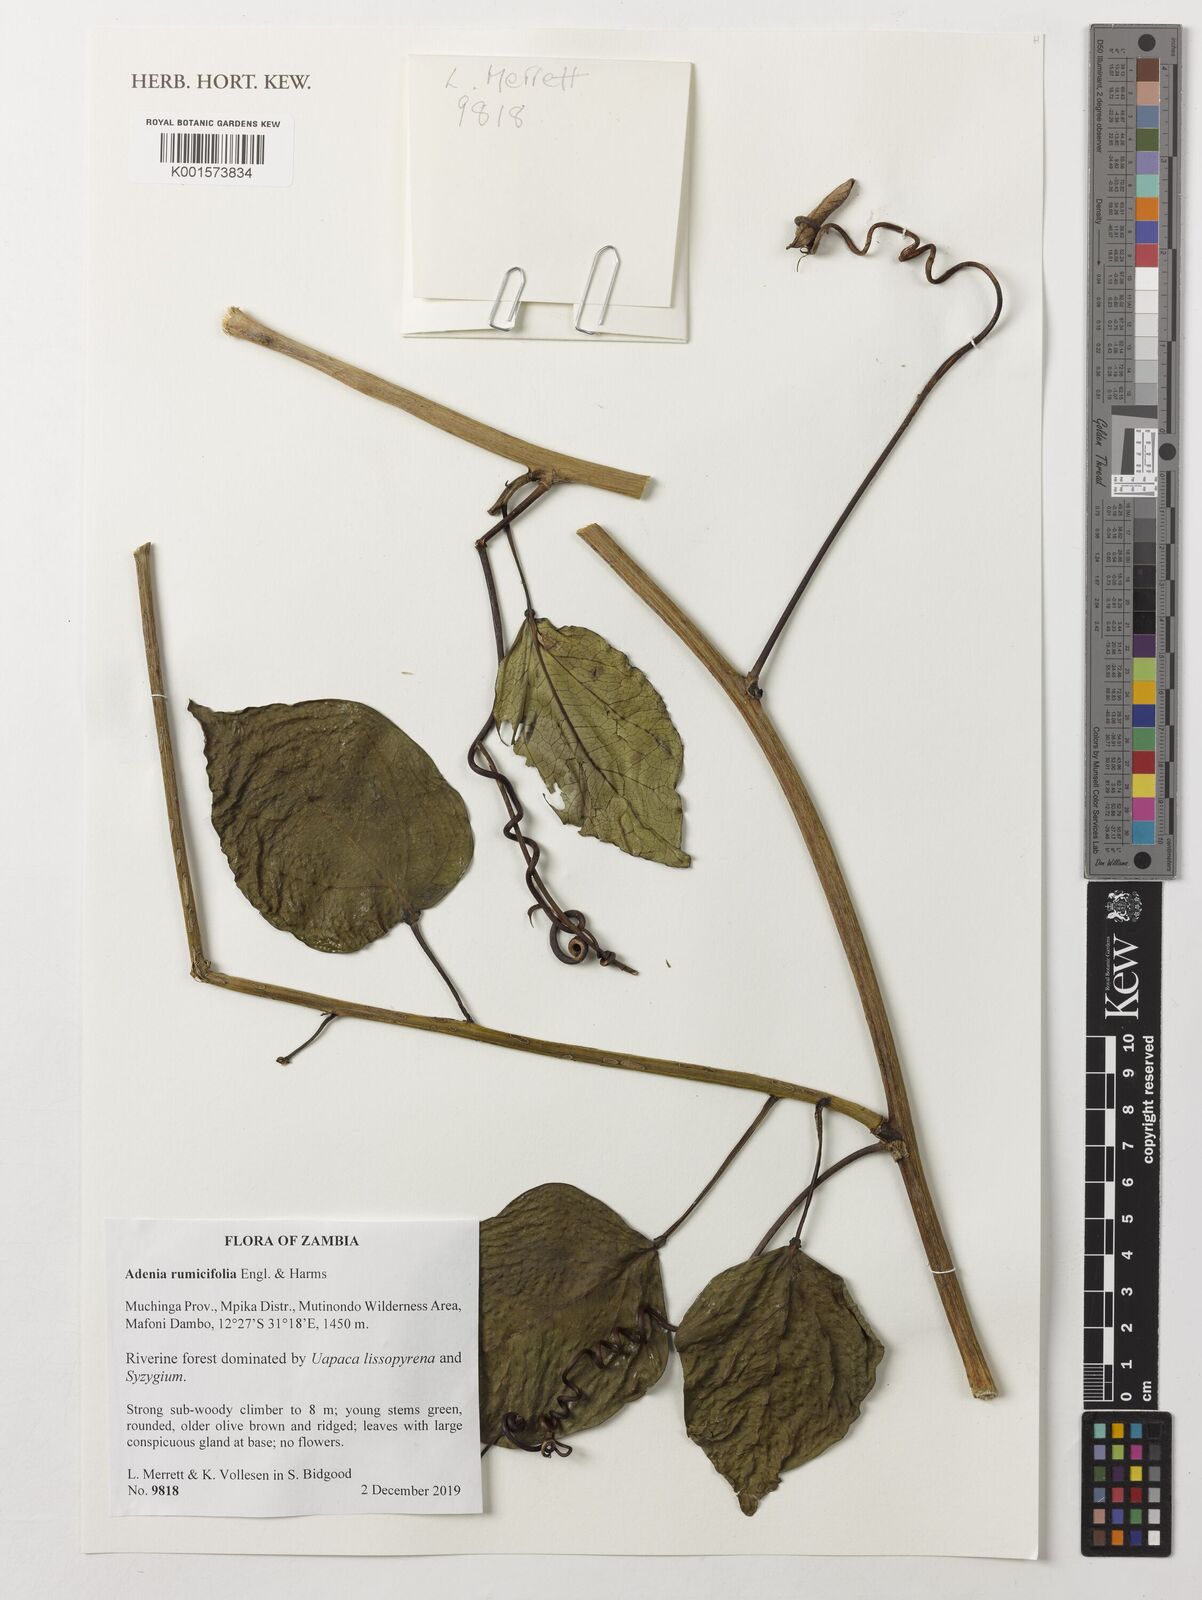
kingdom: Plantae
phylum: Tracheophyta
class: Magnoliopsida
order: Malpighiales
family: Passifloraceae
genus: Adenia
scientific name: Adenia lobata
